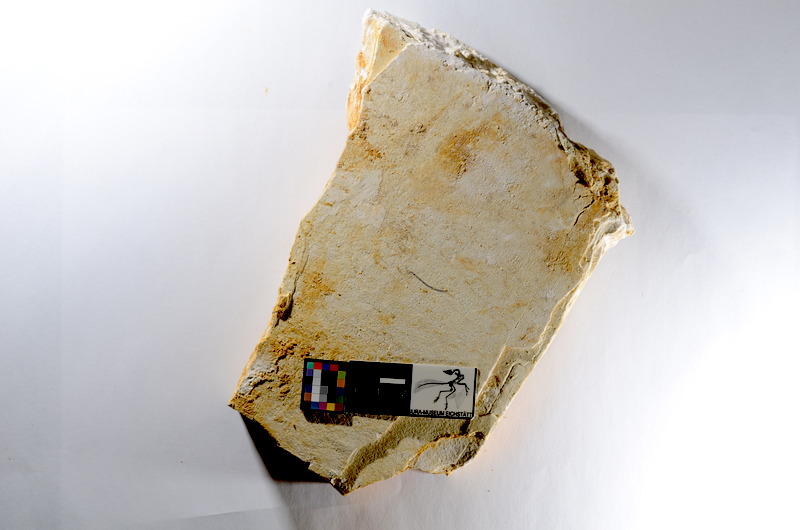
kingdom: Animalia
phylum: Chordata
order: Salmoniformes
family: Orthogonikleithridae
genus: Orthogonikleithrus
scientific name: Orthogonikleithrus hoelli
